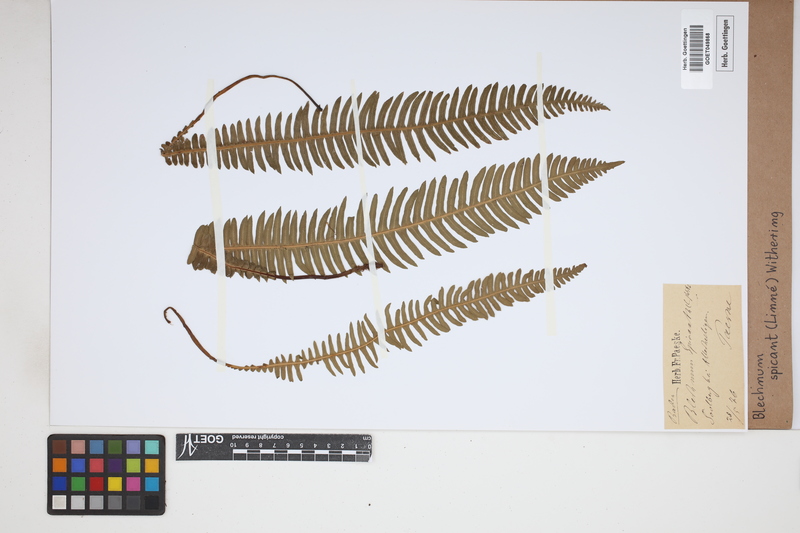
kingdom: Plantae
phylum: Tracheophyta
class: Polypodiopsida
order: Polypodiales
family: Blechnaceae
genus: Struthiopteris
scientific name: Struthiopteris spicant
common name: Deer fern
